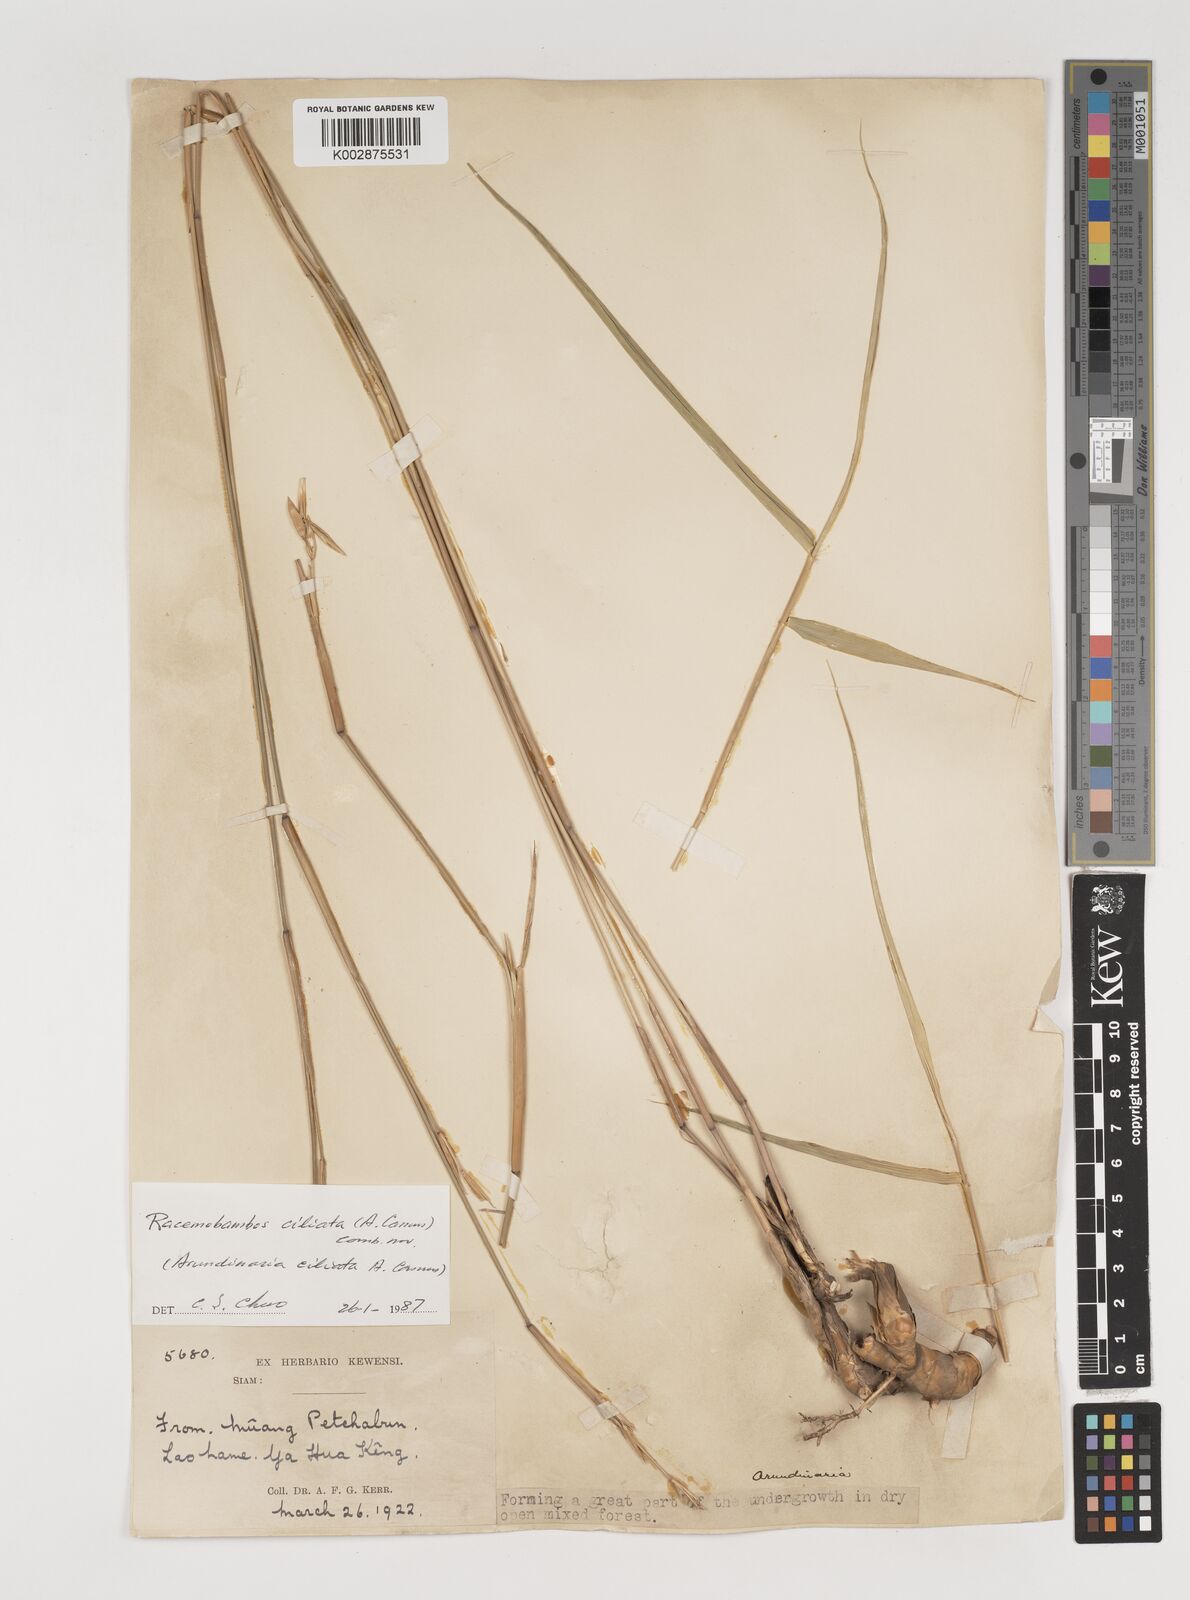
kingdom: Plantae
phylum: Tracheophyta
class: Liliopsida
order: Poales
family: Poaceae
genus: Vietnamosasa
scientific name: Vietnamosasa ciliata
